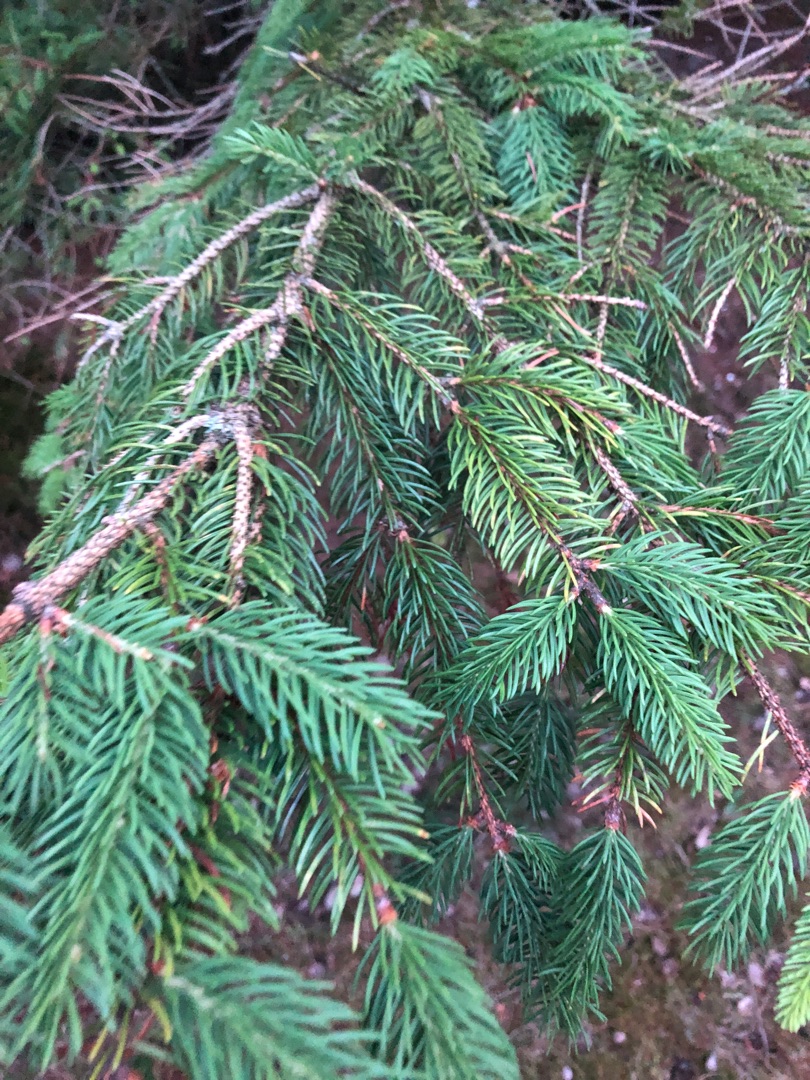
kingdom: Plantae
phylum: Tracheophyta
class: Pinopsida
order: Pinales
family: Pinaceae
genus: Picea
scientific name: Picea abies
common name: Rød-gran
